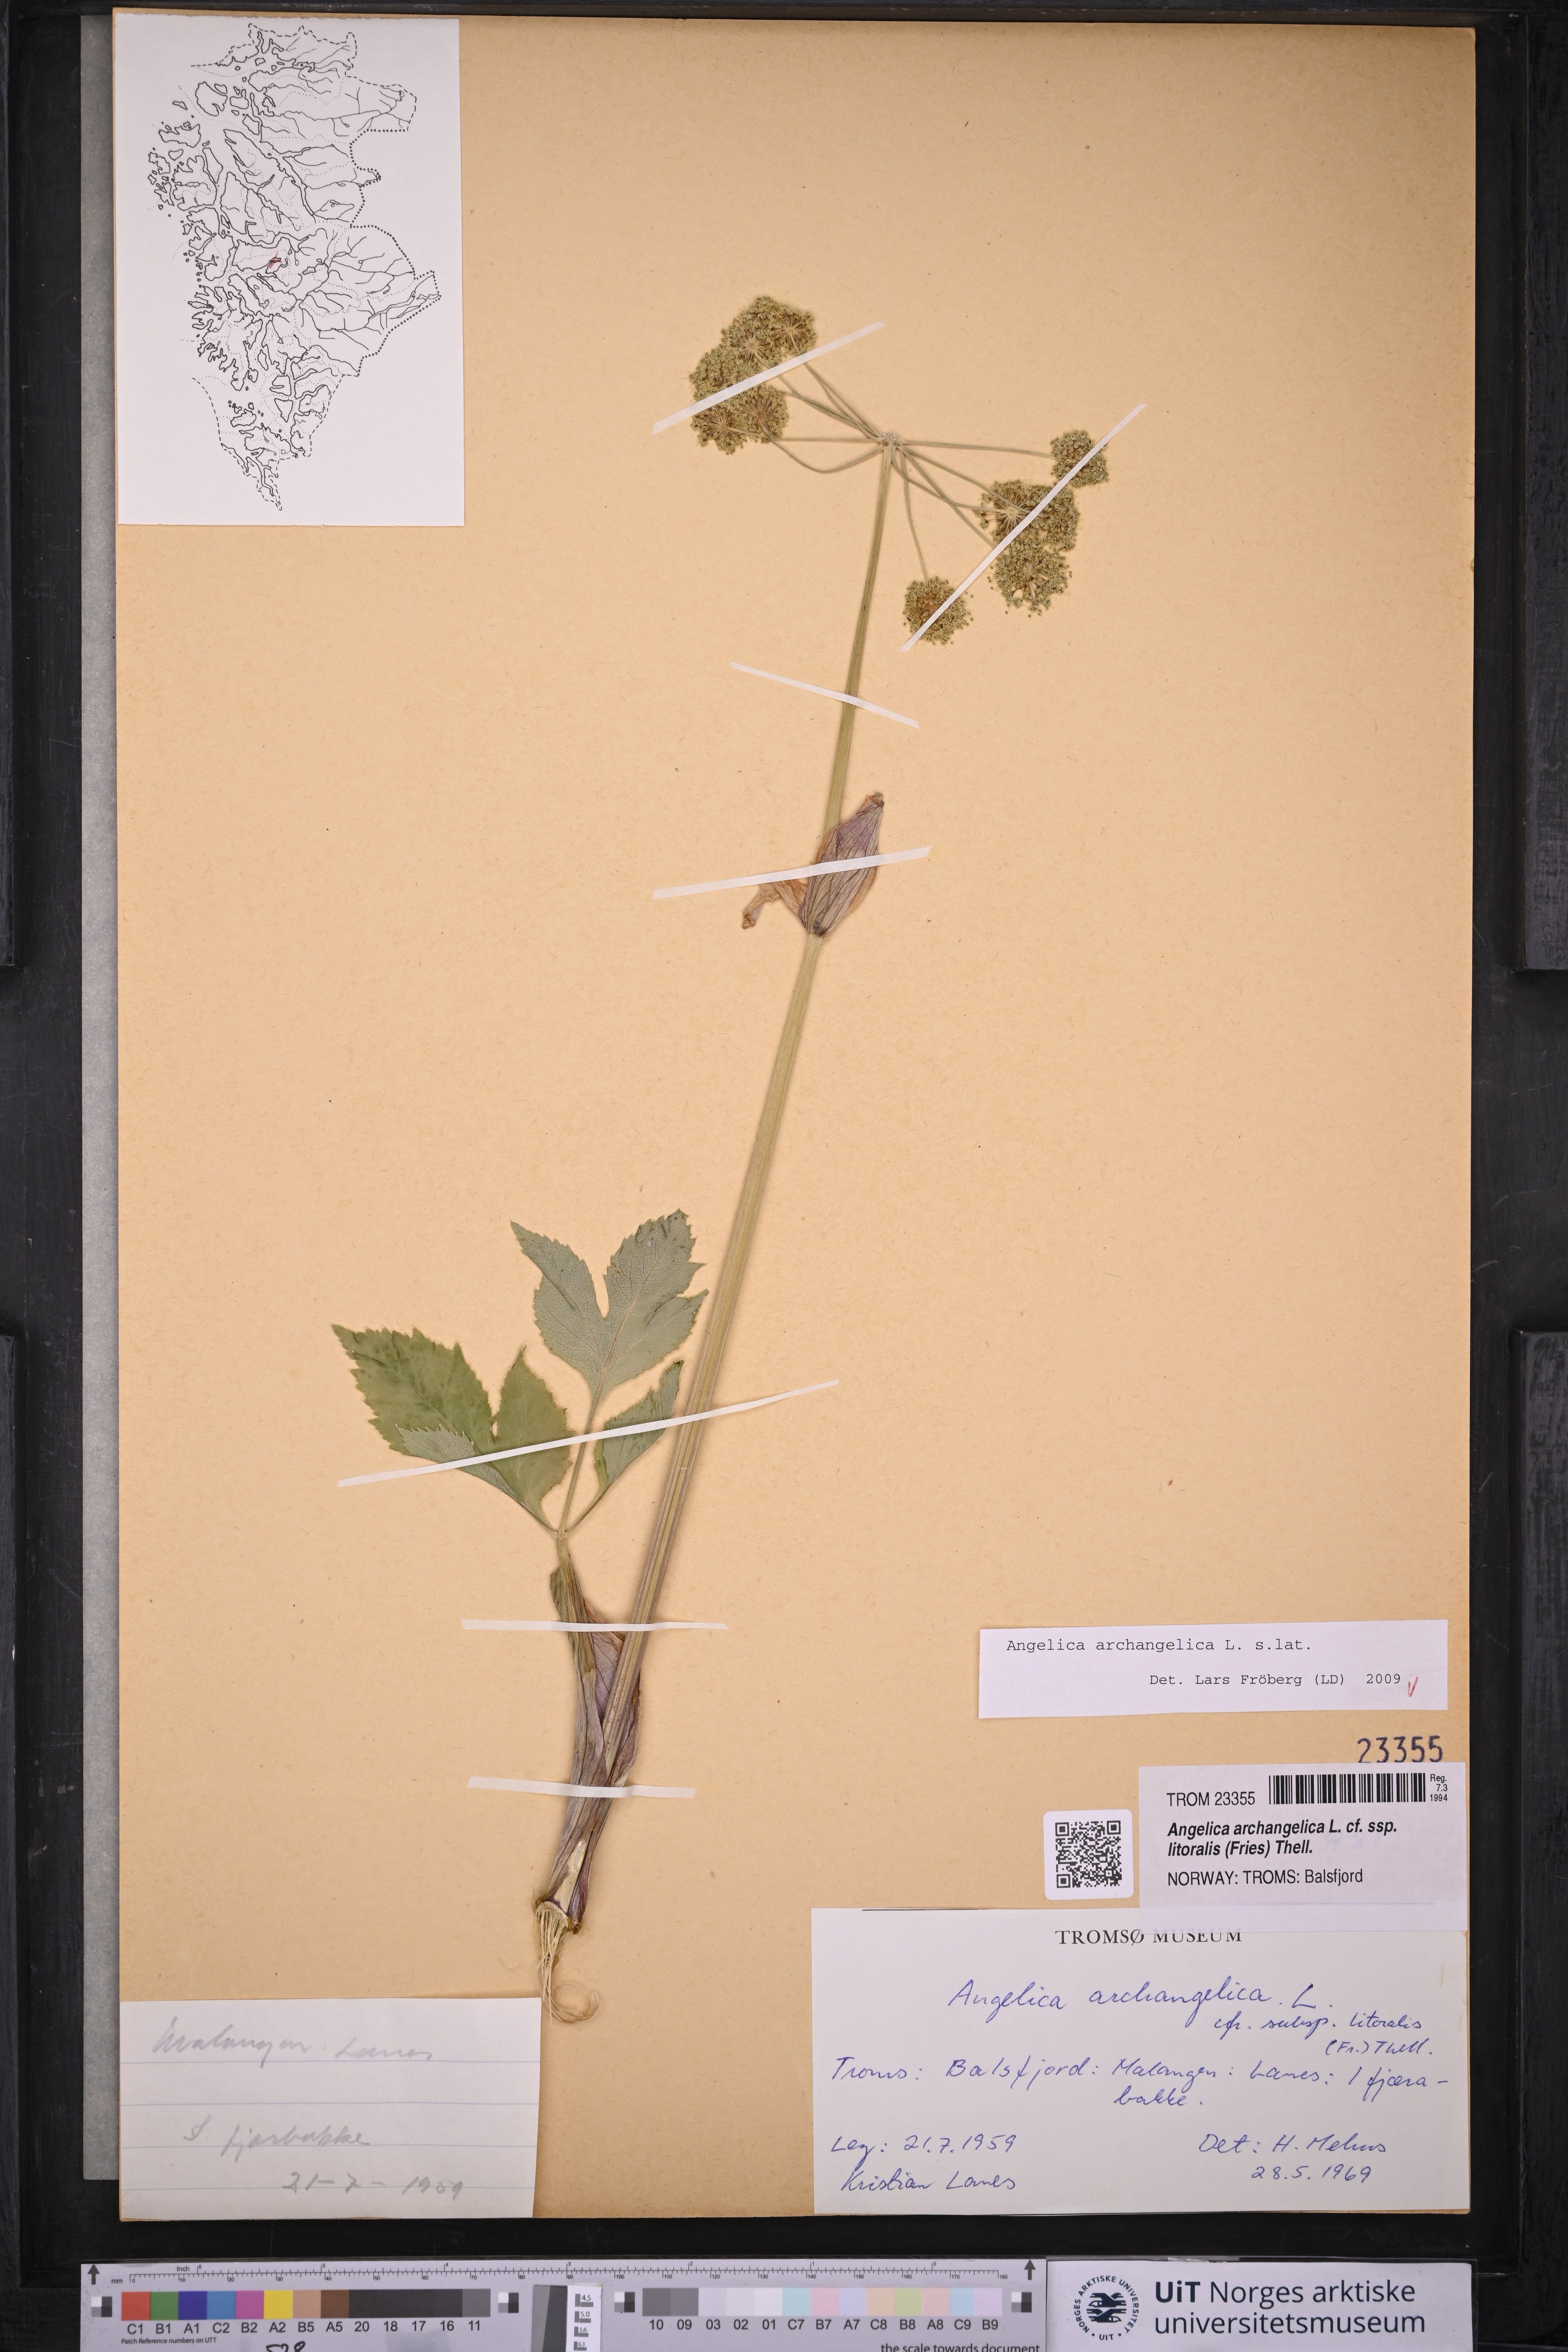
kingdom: Plantae
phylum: Tracheophyta
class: Magnoliopsida
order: Apiales
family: Apiaceae
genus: Angelica
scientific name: Angelica archangelica
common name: Garden angelica
